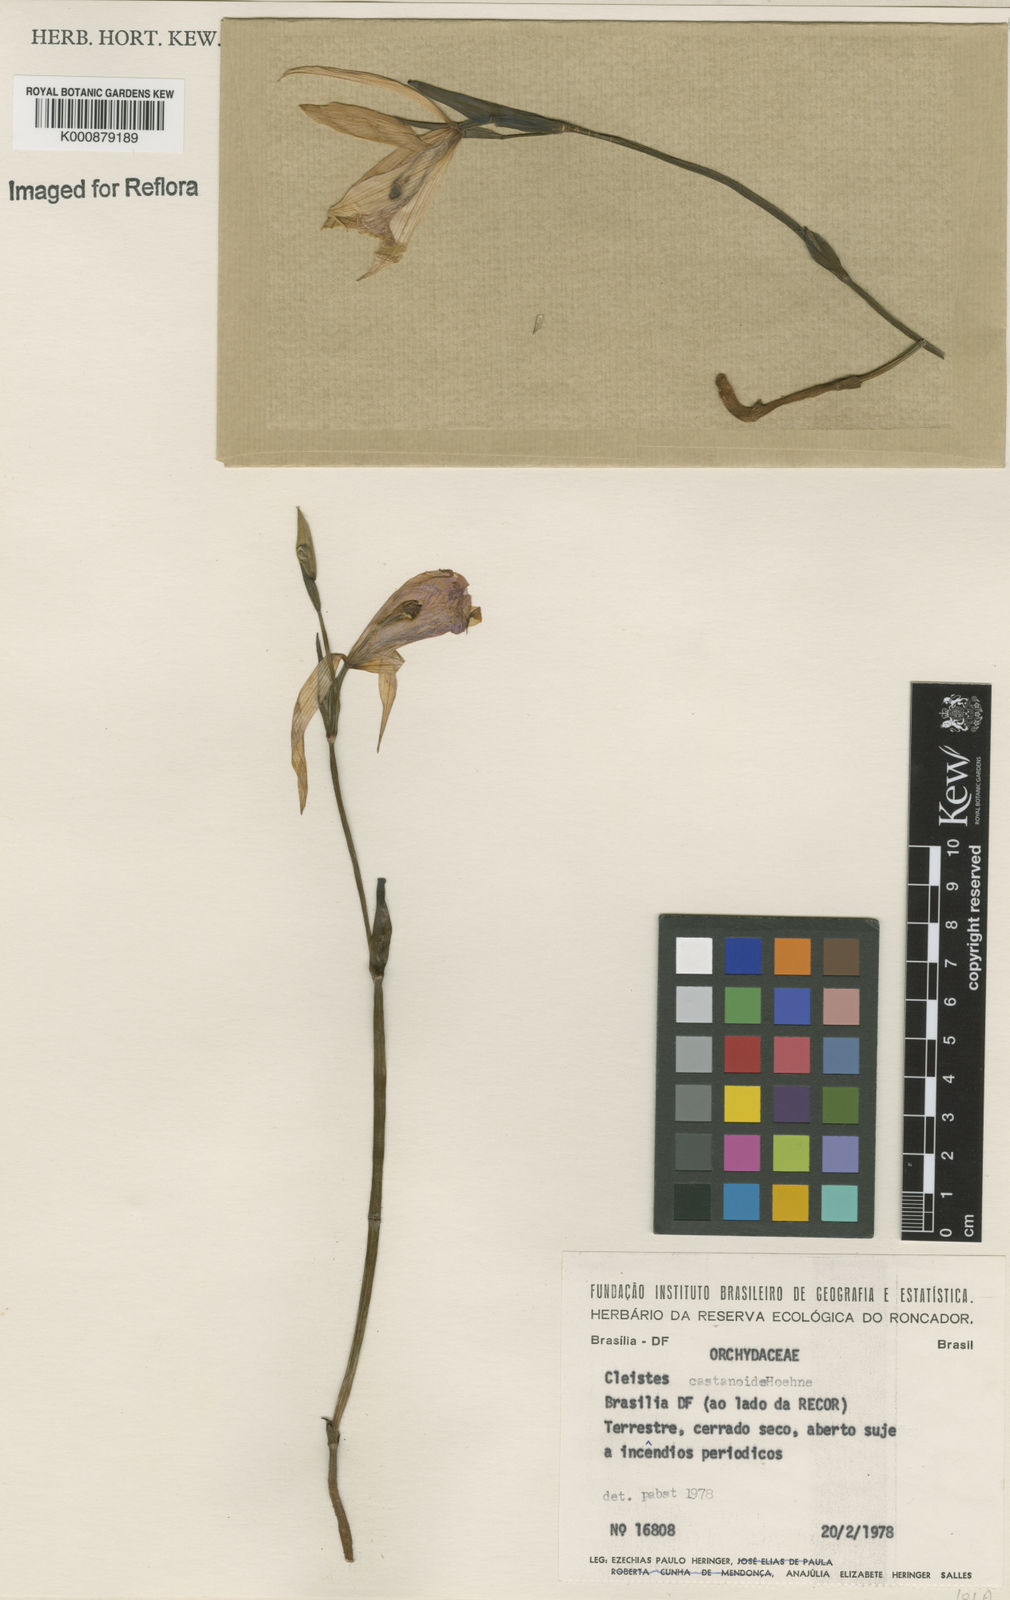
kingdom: Plantae
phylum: Tracheophyta
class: Liliopsida
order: Asparagales
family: Orchidaceae
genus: Cleistes
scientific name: Cleistes rosea
